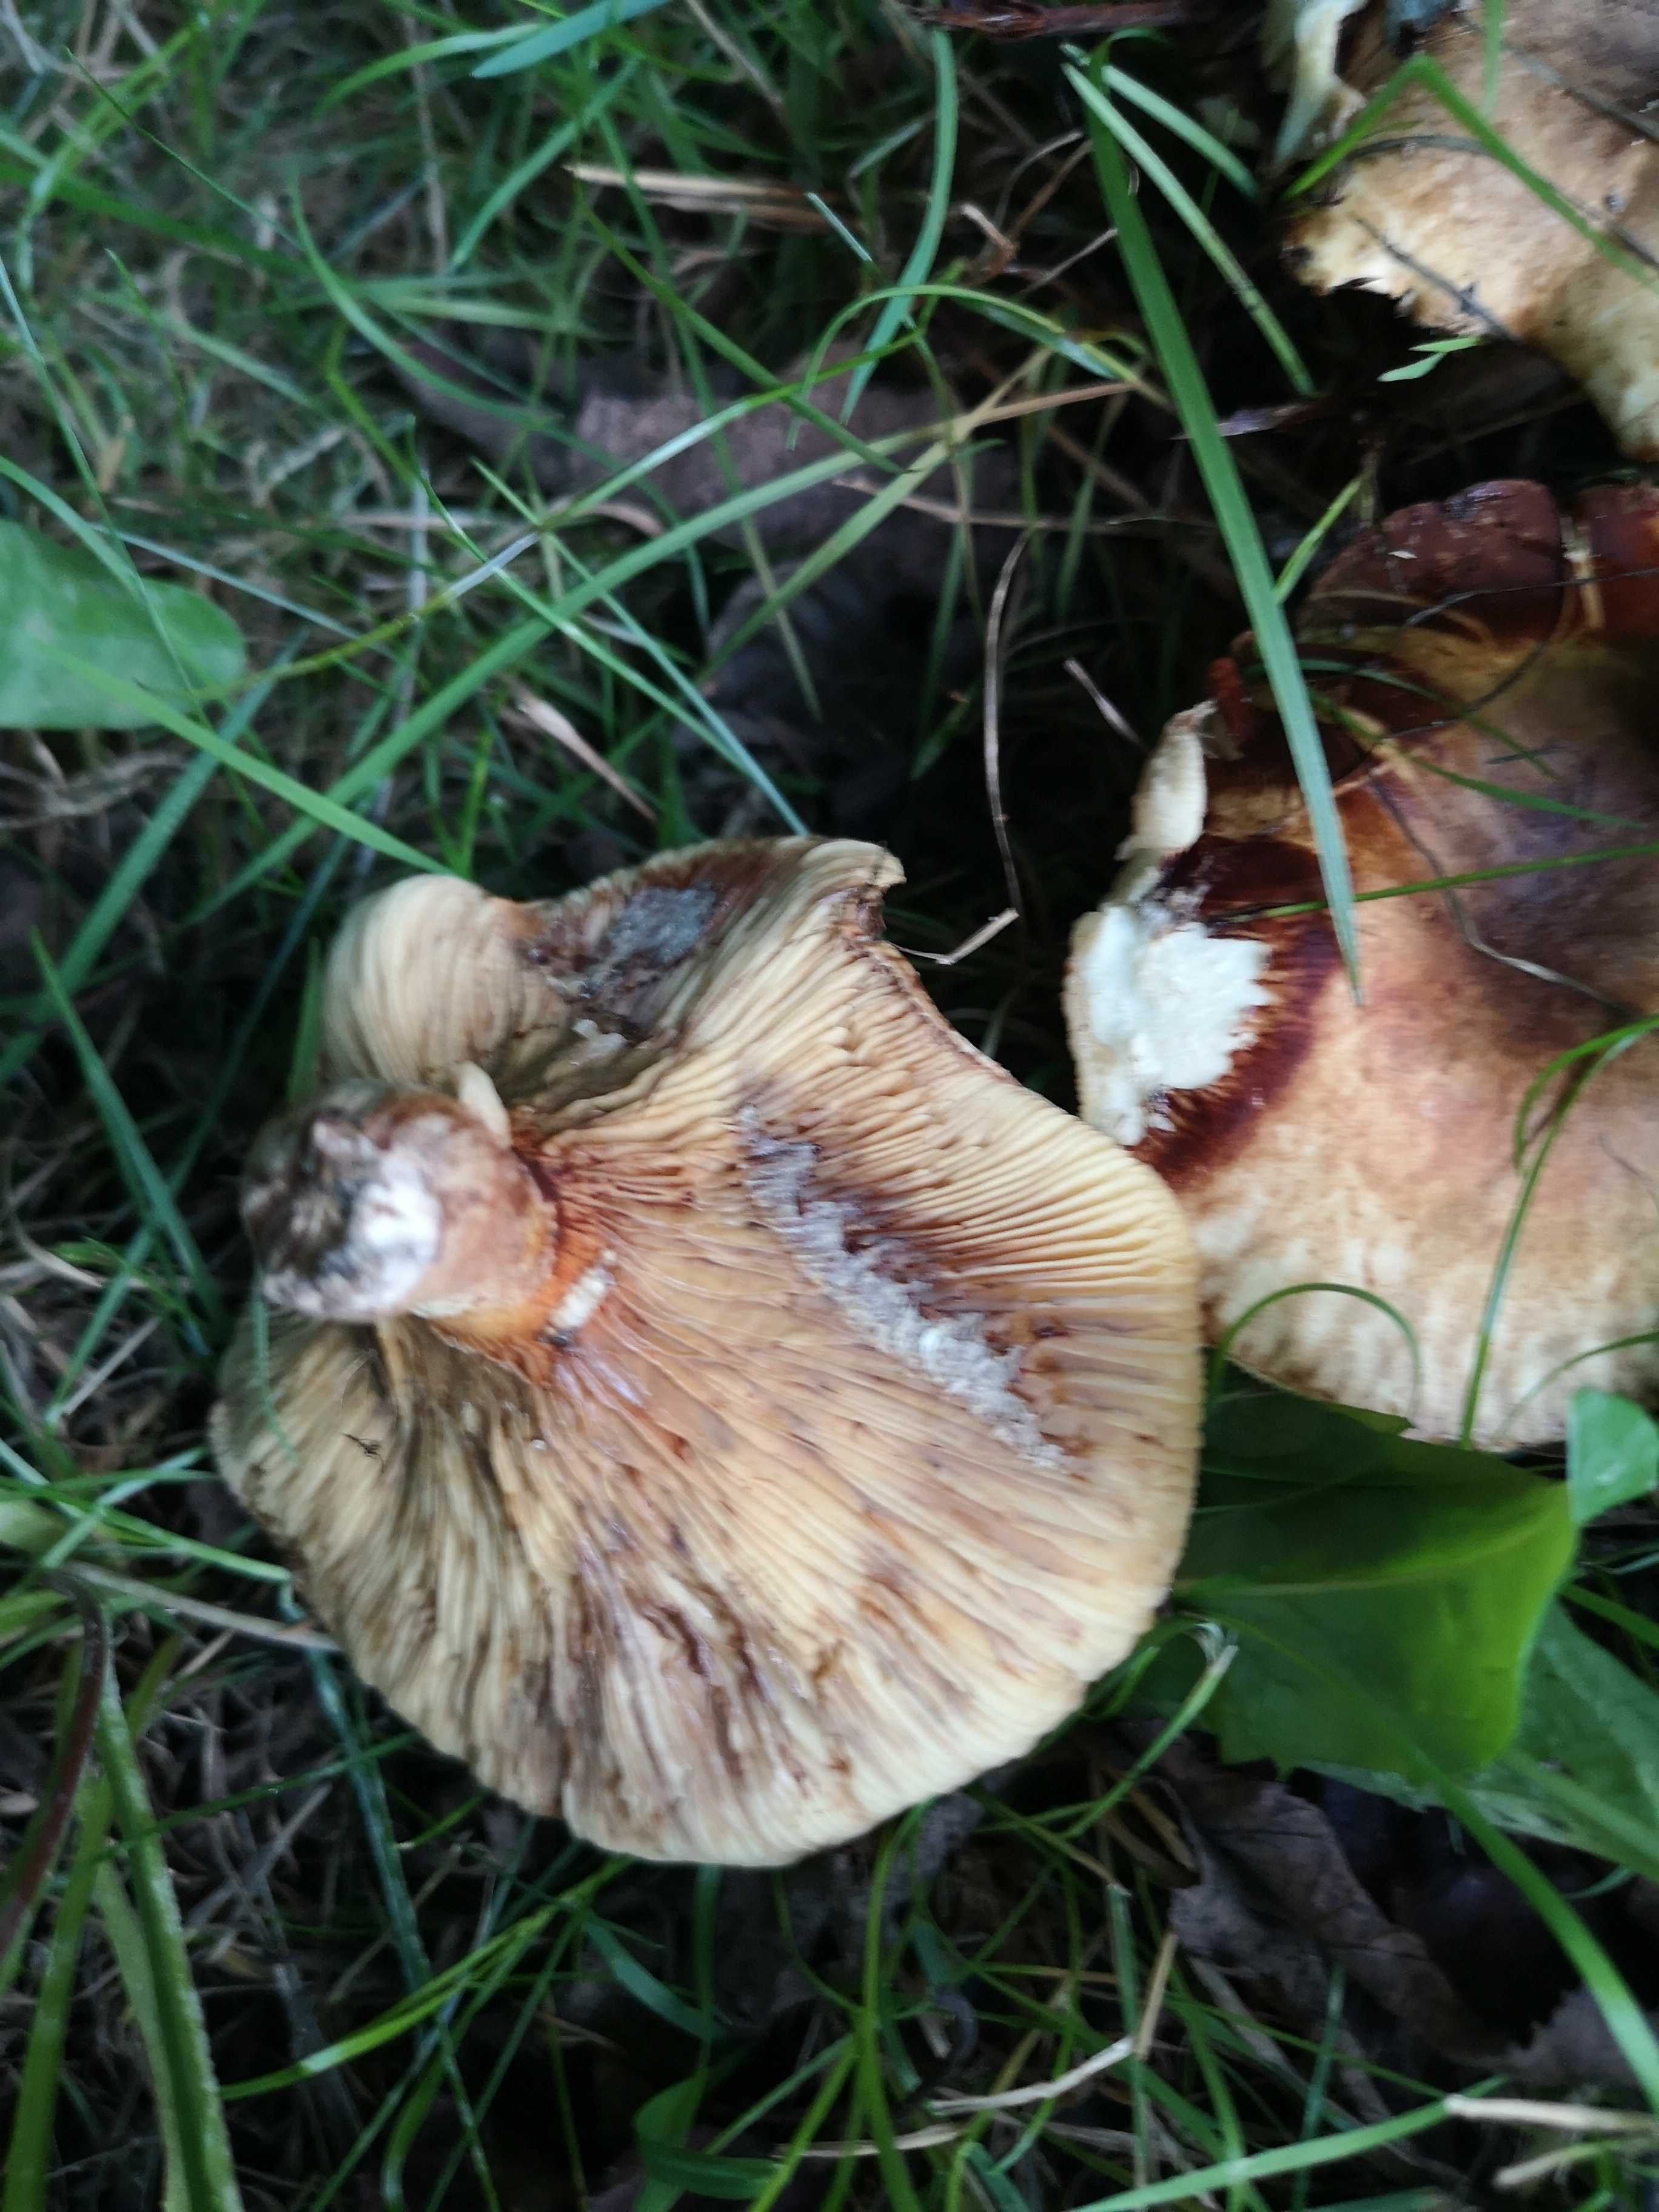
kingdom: Fungi
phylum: Basidiomycota
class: Agaricomycetes
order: Boletales
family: Paxillaceae
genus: Paxillus
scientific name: Paxillus rubicundulus
